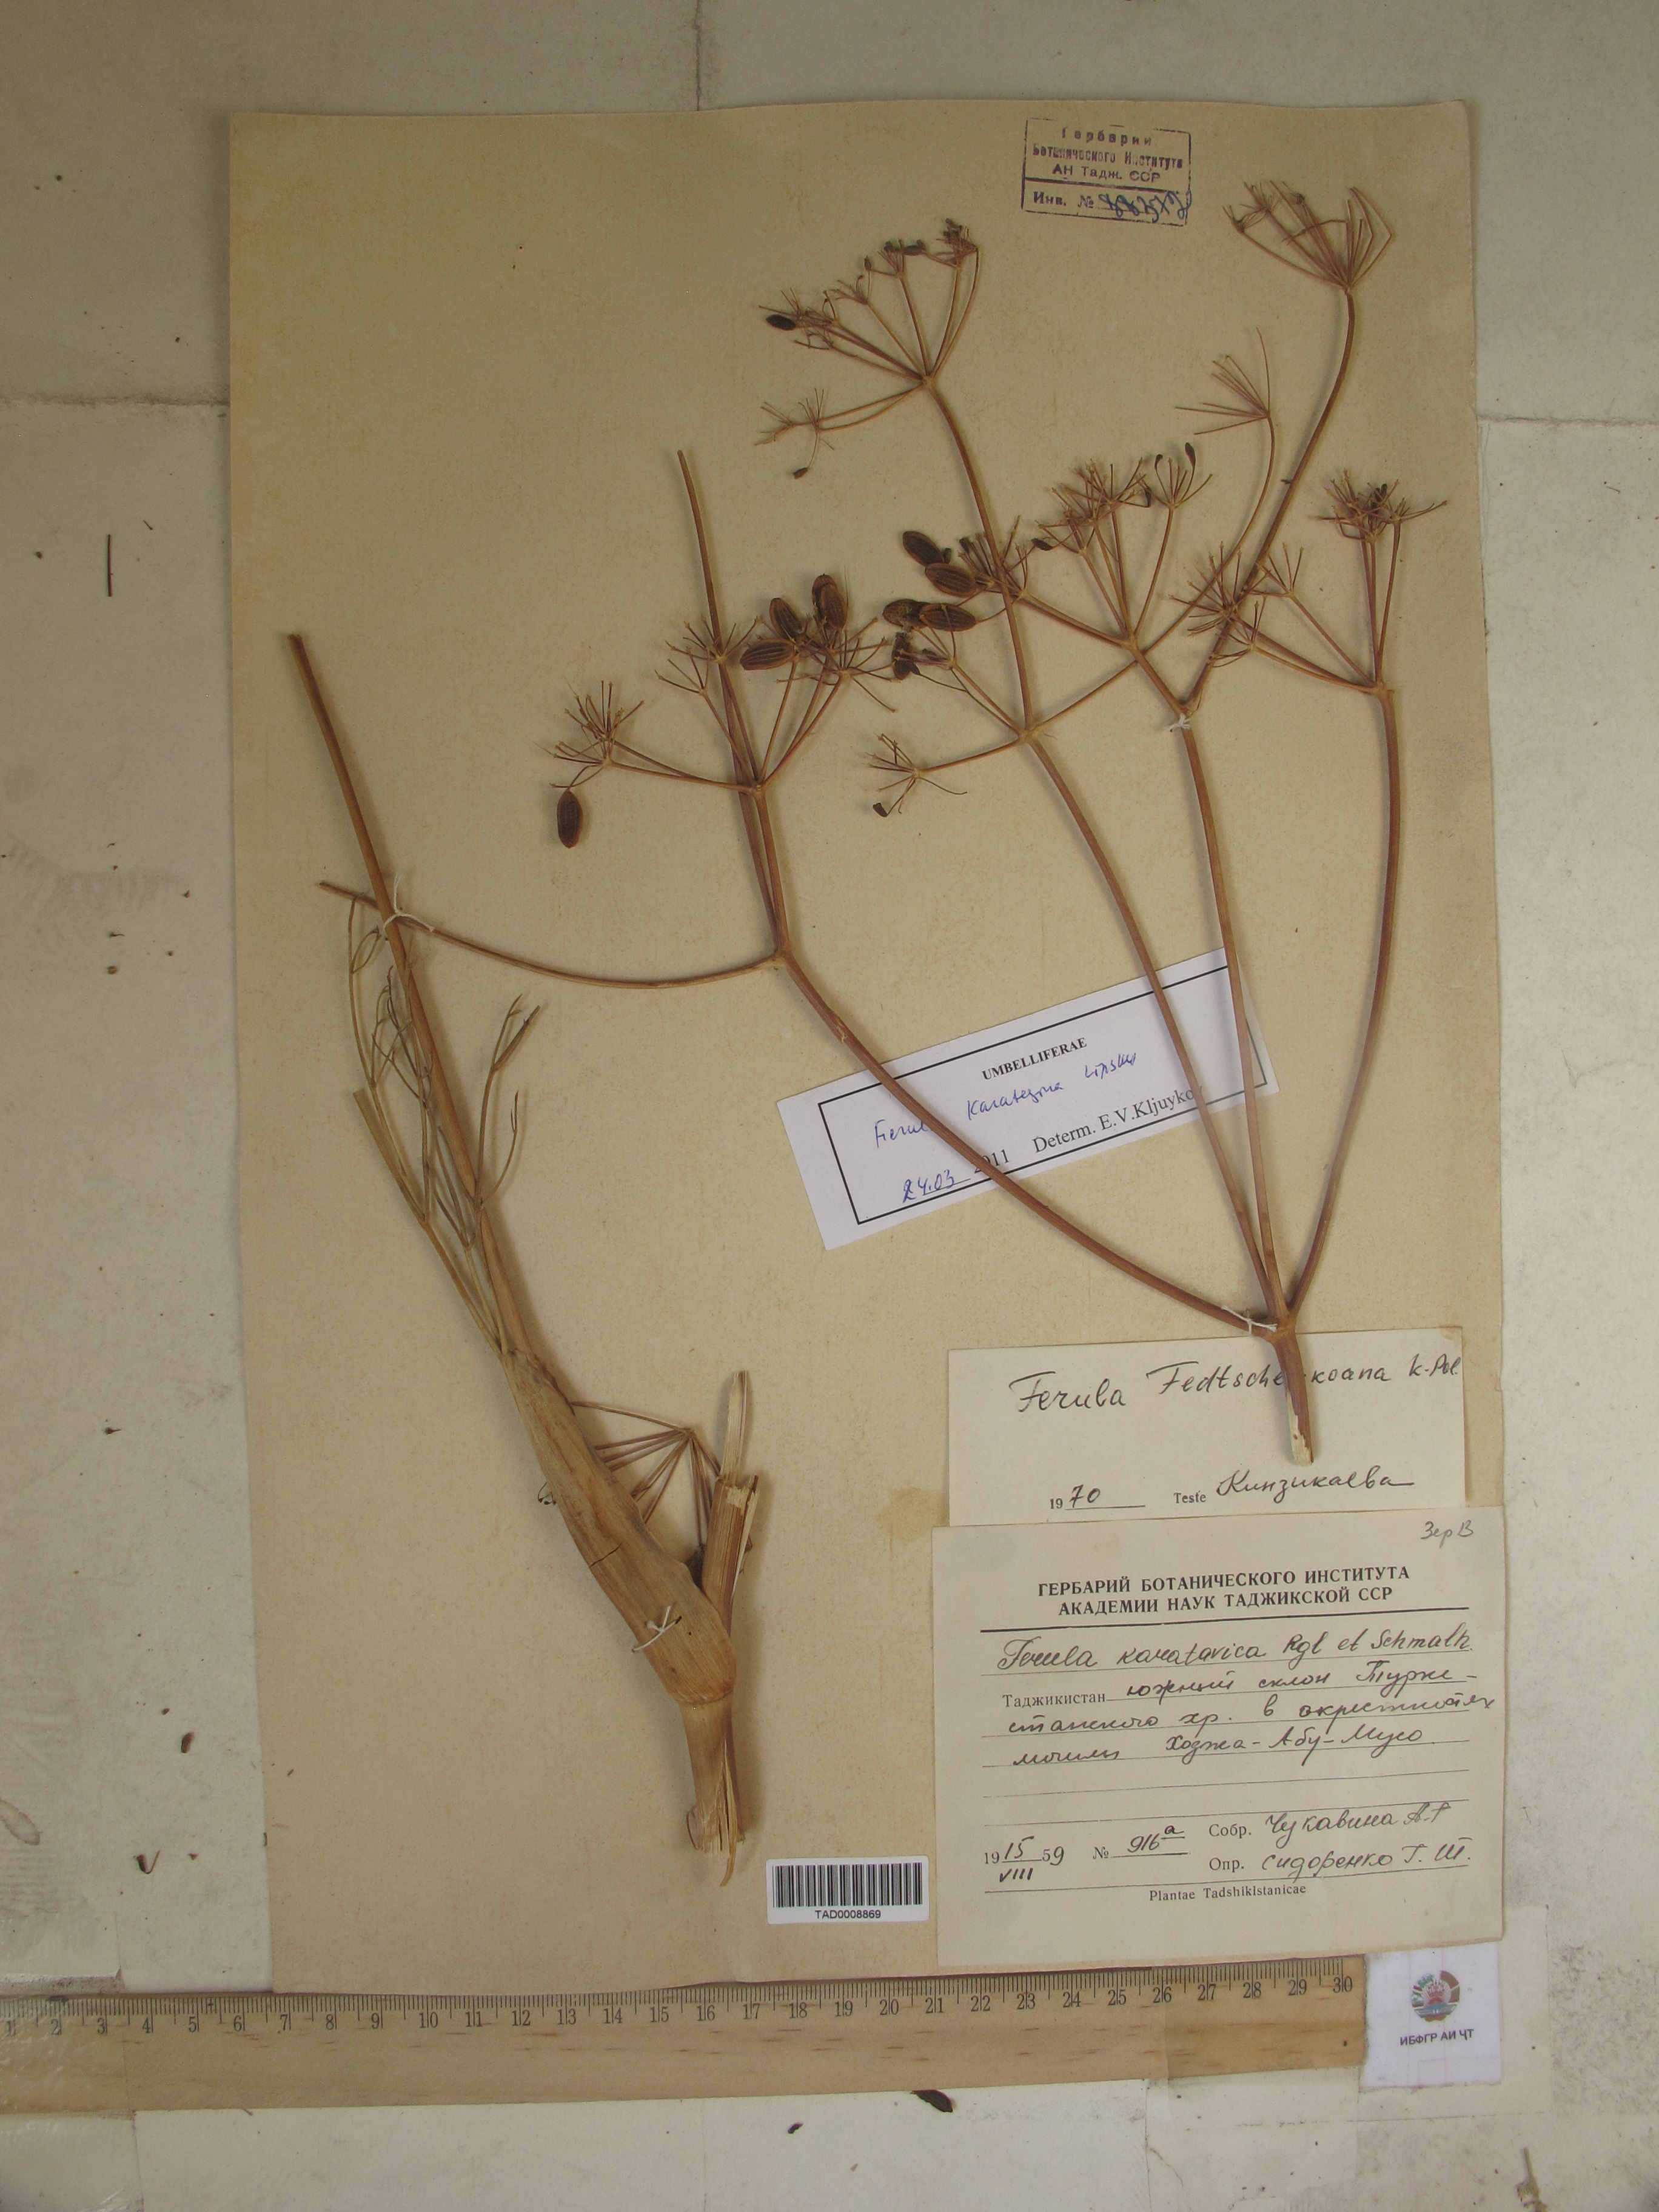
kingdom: Plantae
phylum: Tracheophyta
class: Magnoliopsida
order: Apiales
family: Apiaceae
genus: Ferula
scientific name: Ferula fedtschenkoana
